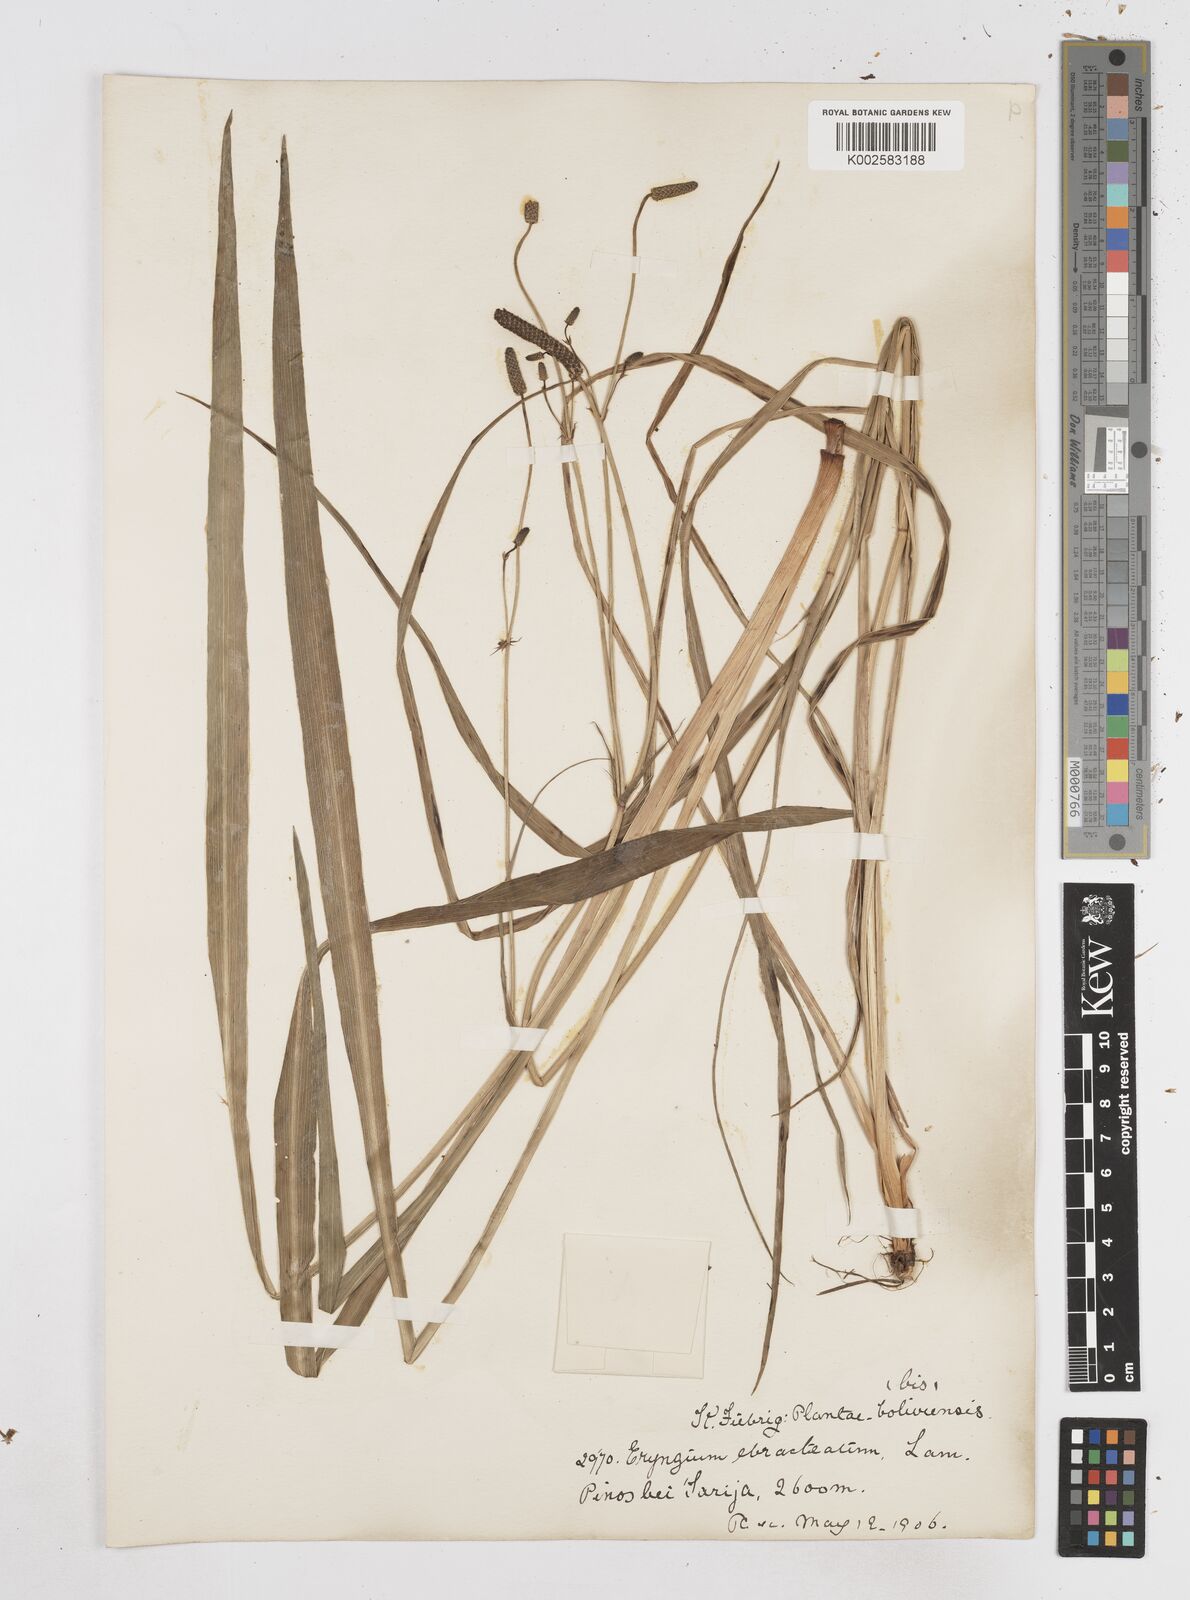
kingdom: Plantae
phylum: Tracheophyta
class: Magnoliopsida
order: Apiales
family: Apiaceae
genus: Eryngium
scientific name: Eryngium ebracteatum
